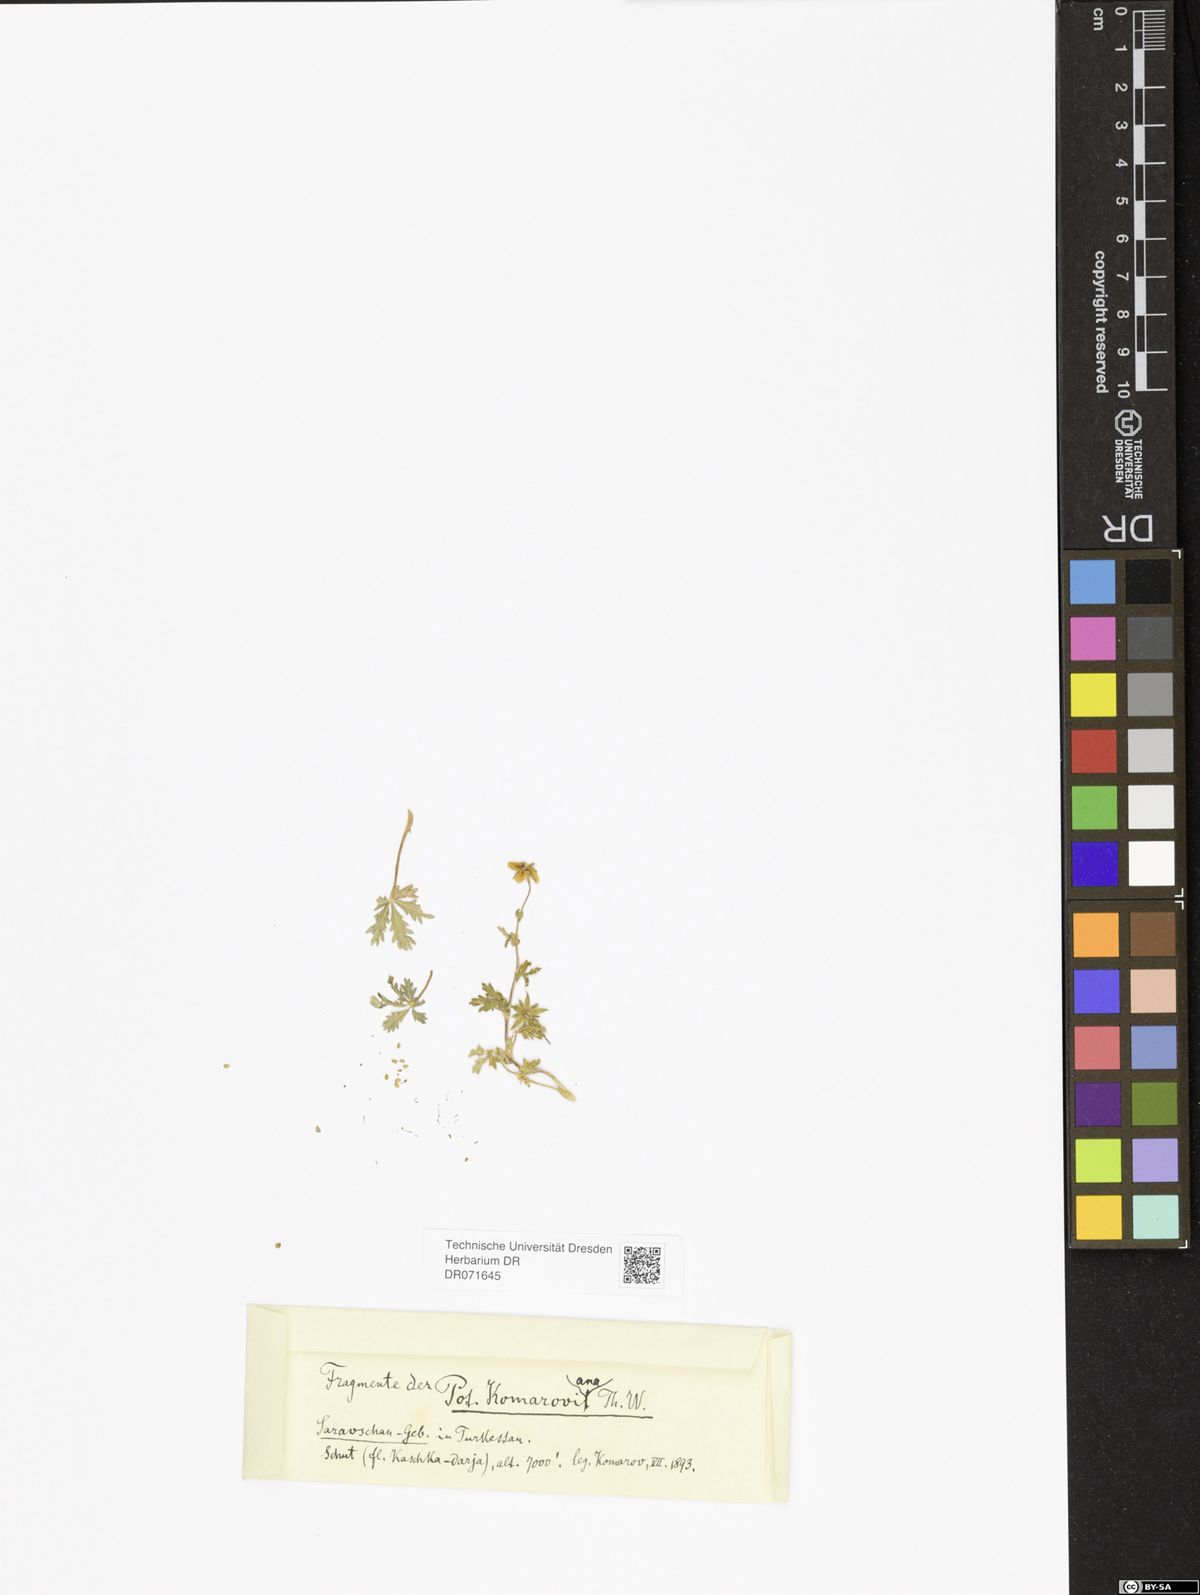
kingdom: Plantae
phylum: Tracheophyta
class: Magnoliopsida
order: Rosales
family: Rosaceae
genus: Potentilla
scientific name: Potentilla mollissima
